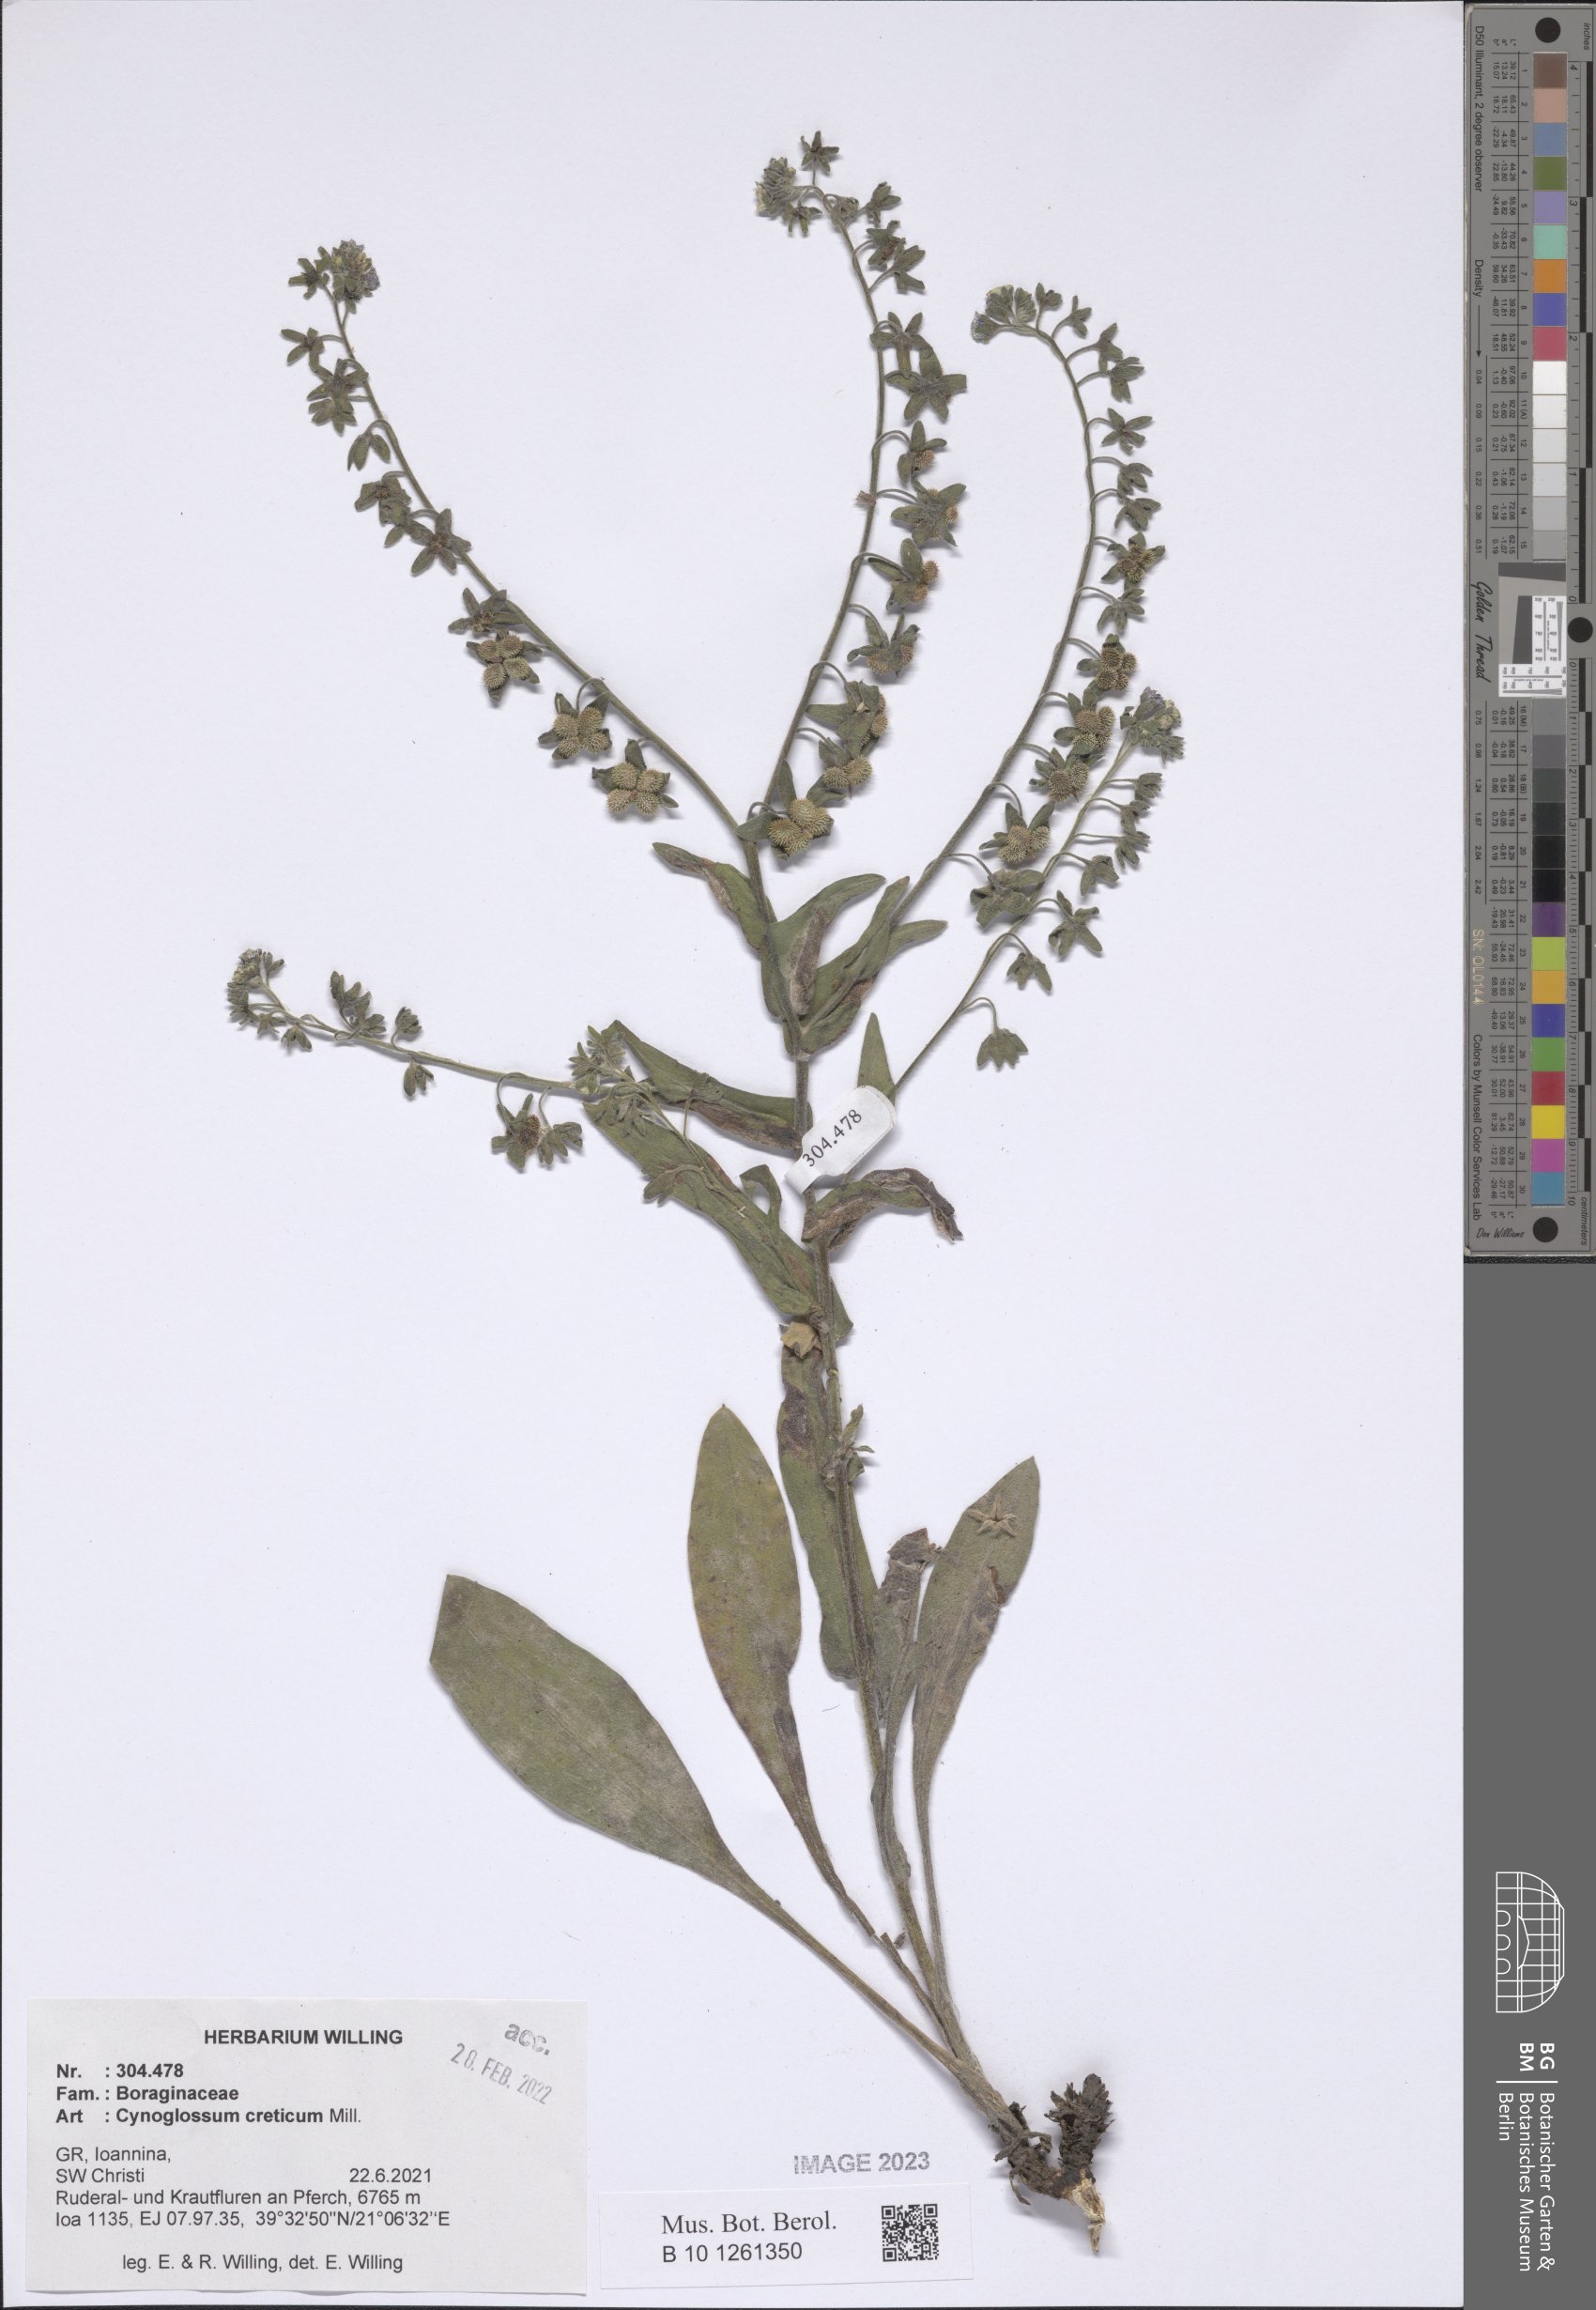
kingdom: Plantae
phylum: Tracheophyta
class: Magnoliopsida
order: Boraginales
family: Boraginaceae
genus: Cynoglossum
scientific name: Cynoglossum creticum
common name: Blue hound's tongue
